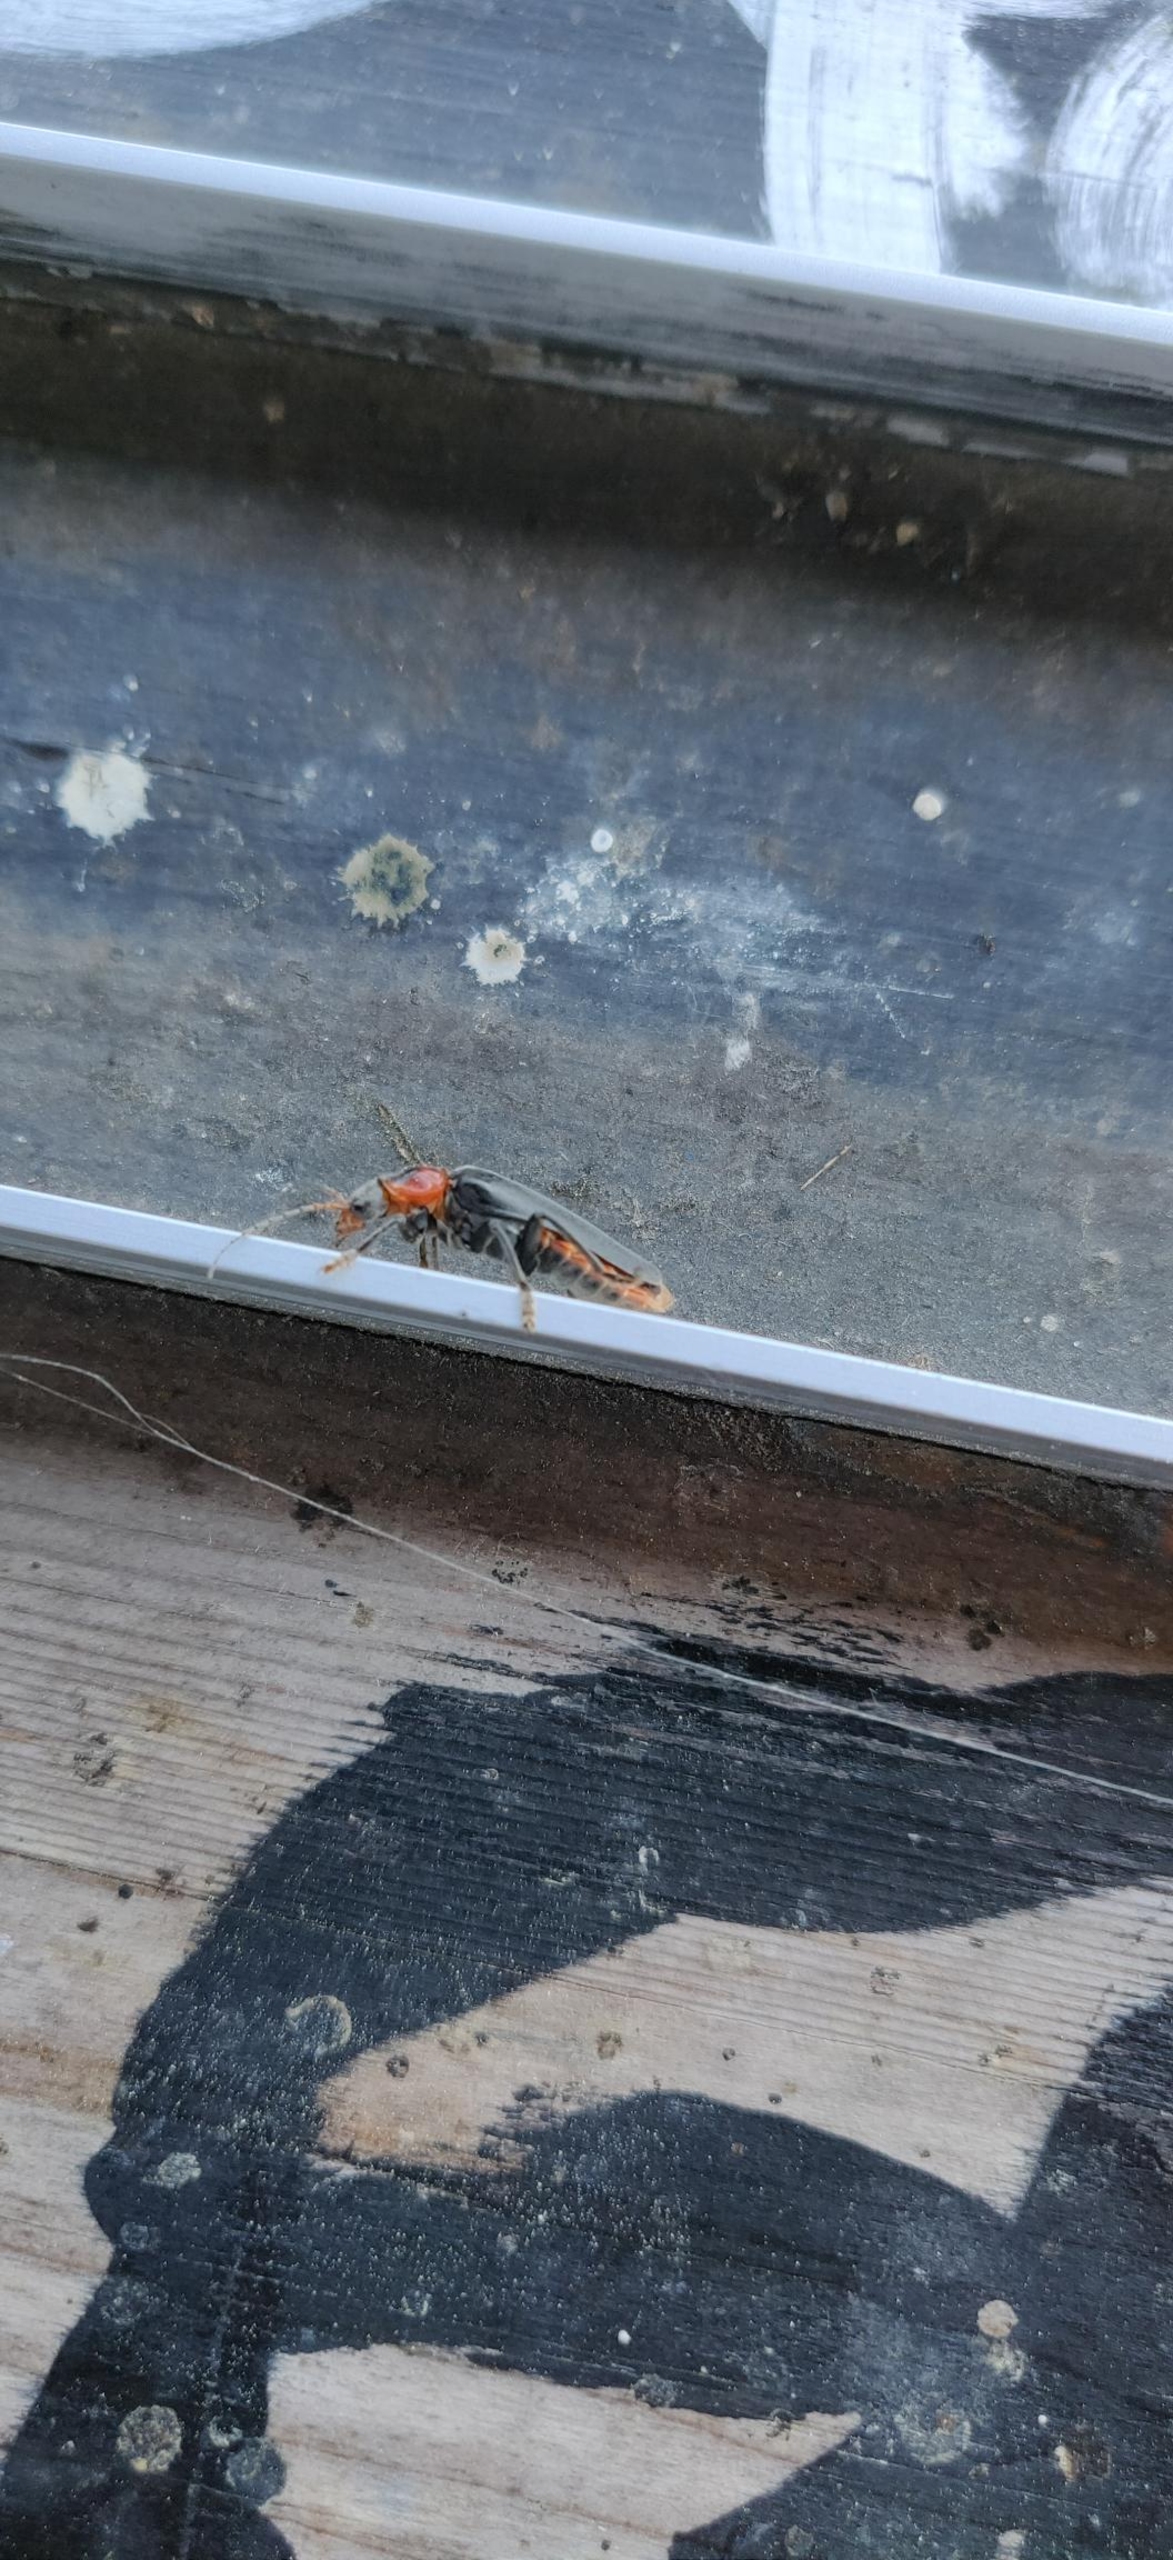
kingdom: Animalia
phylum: Arthropoda
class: Insecta
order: Coleoptera
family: Cantharidae
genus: Cantharis
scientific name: Cantharis fusca
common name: Stor blødvinge
